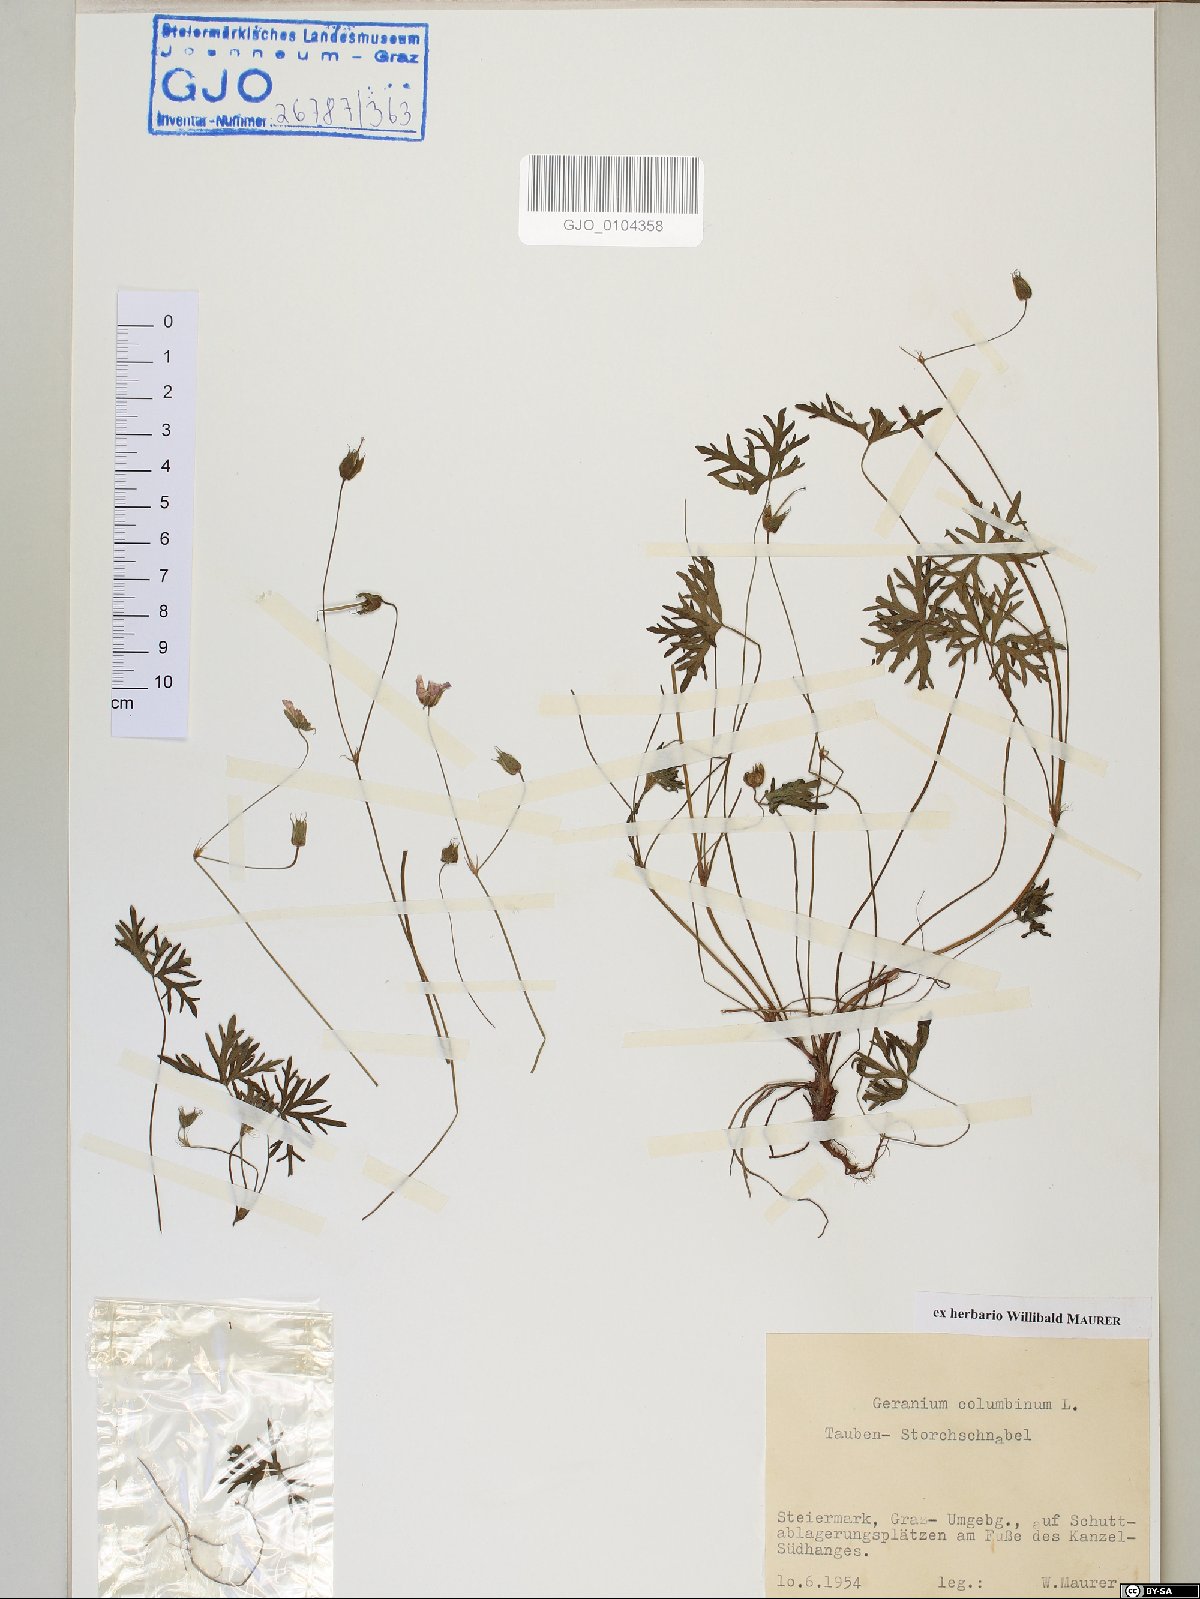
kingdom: Plantae
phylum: Tracheophyta
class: Magnoliopsida
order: Geraniales
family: Geraniaceae
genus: Geranium
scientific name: Geranium columbinum
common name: Long-stalked crane's-bill
